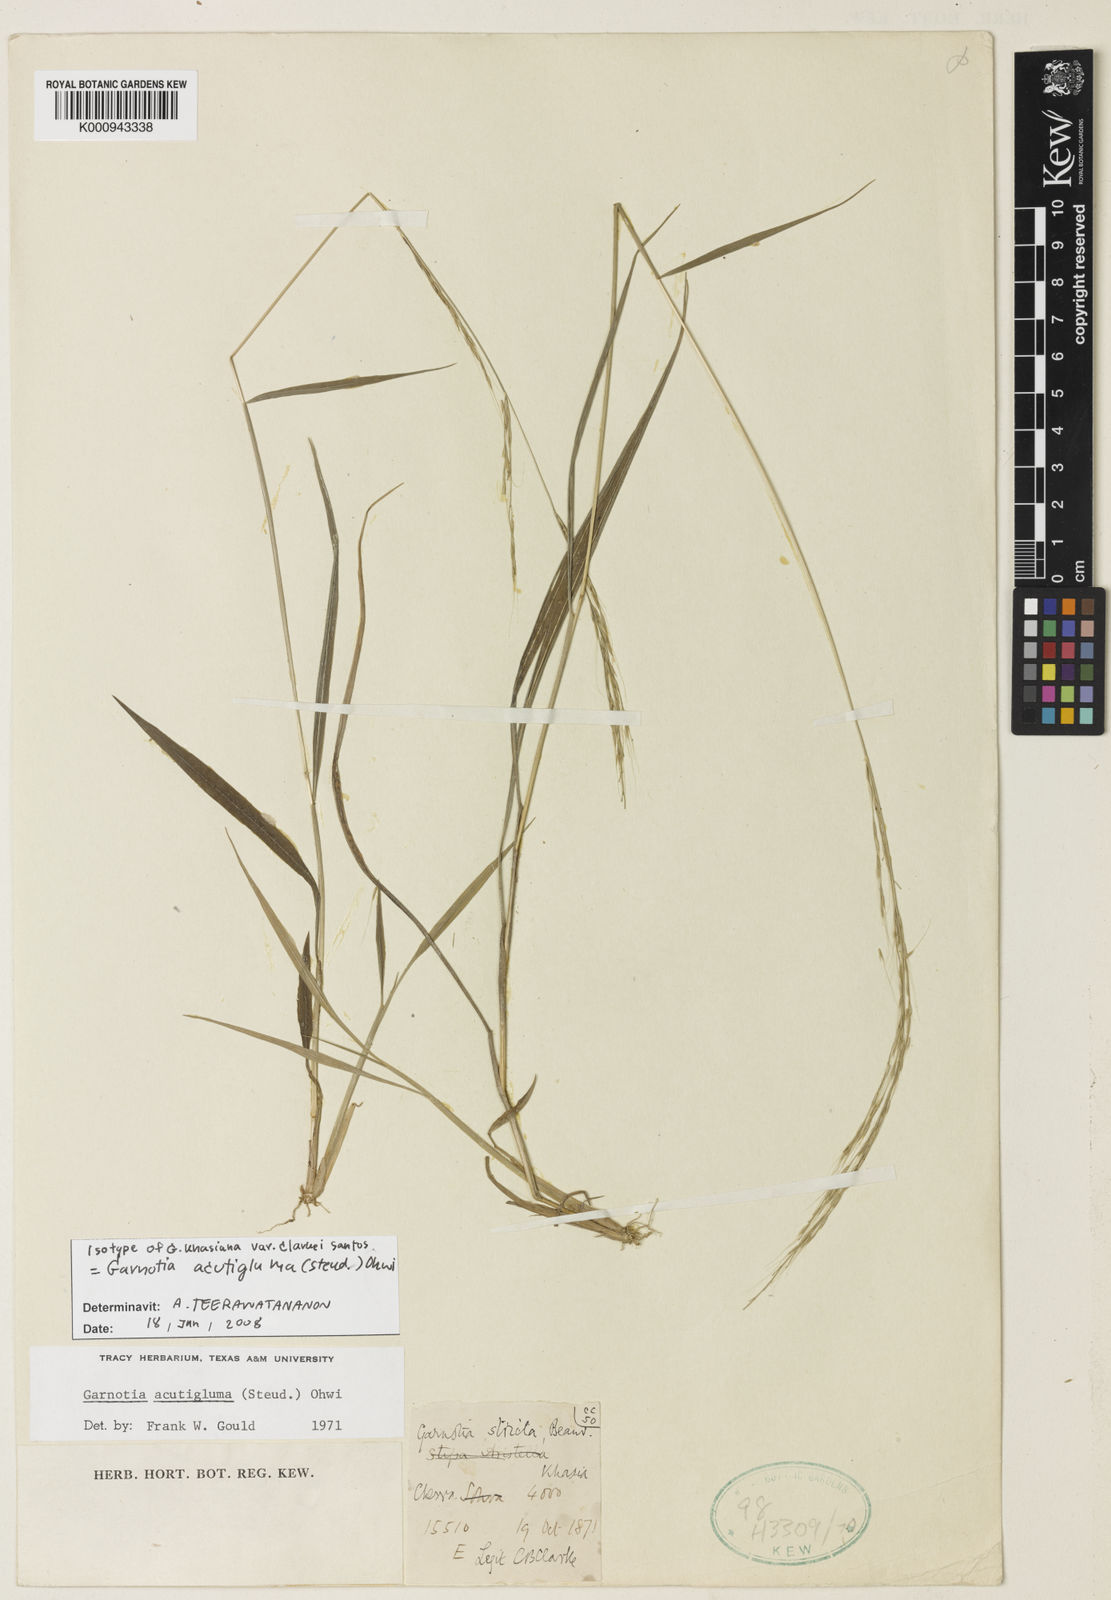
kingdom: Plantae
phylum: Tracheophyta
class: Liliopsida
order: Poales
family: Poaceae
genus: Garnotia
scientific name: Garnotia stricta
